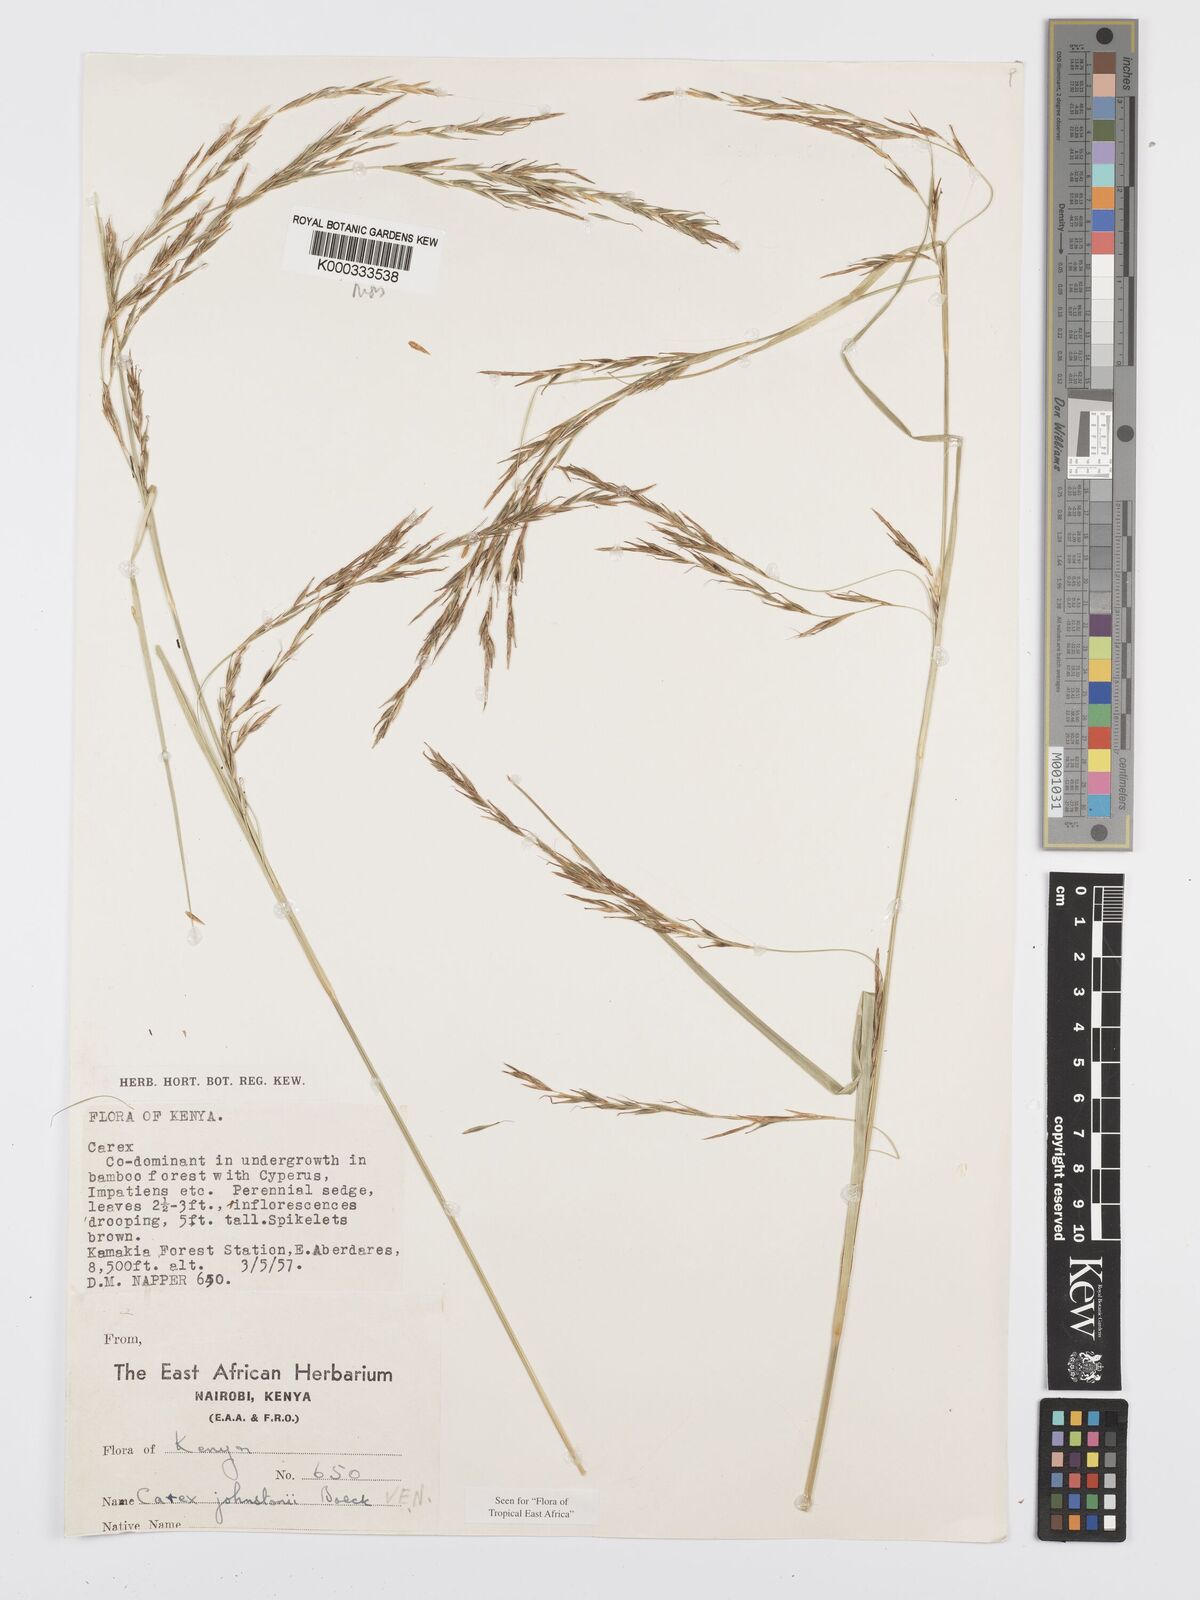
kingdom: Plantae
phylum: Tracheophyta
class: Liliopsida
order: Poales
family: Cyperaceae
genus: Carex
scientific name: Carex johnstonii
